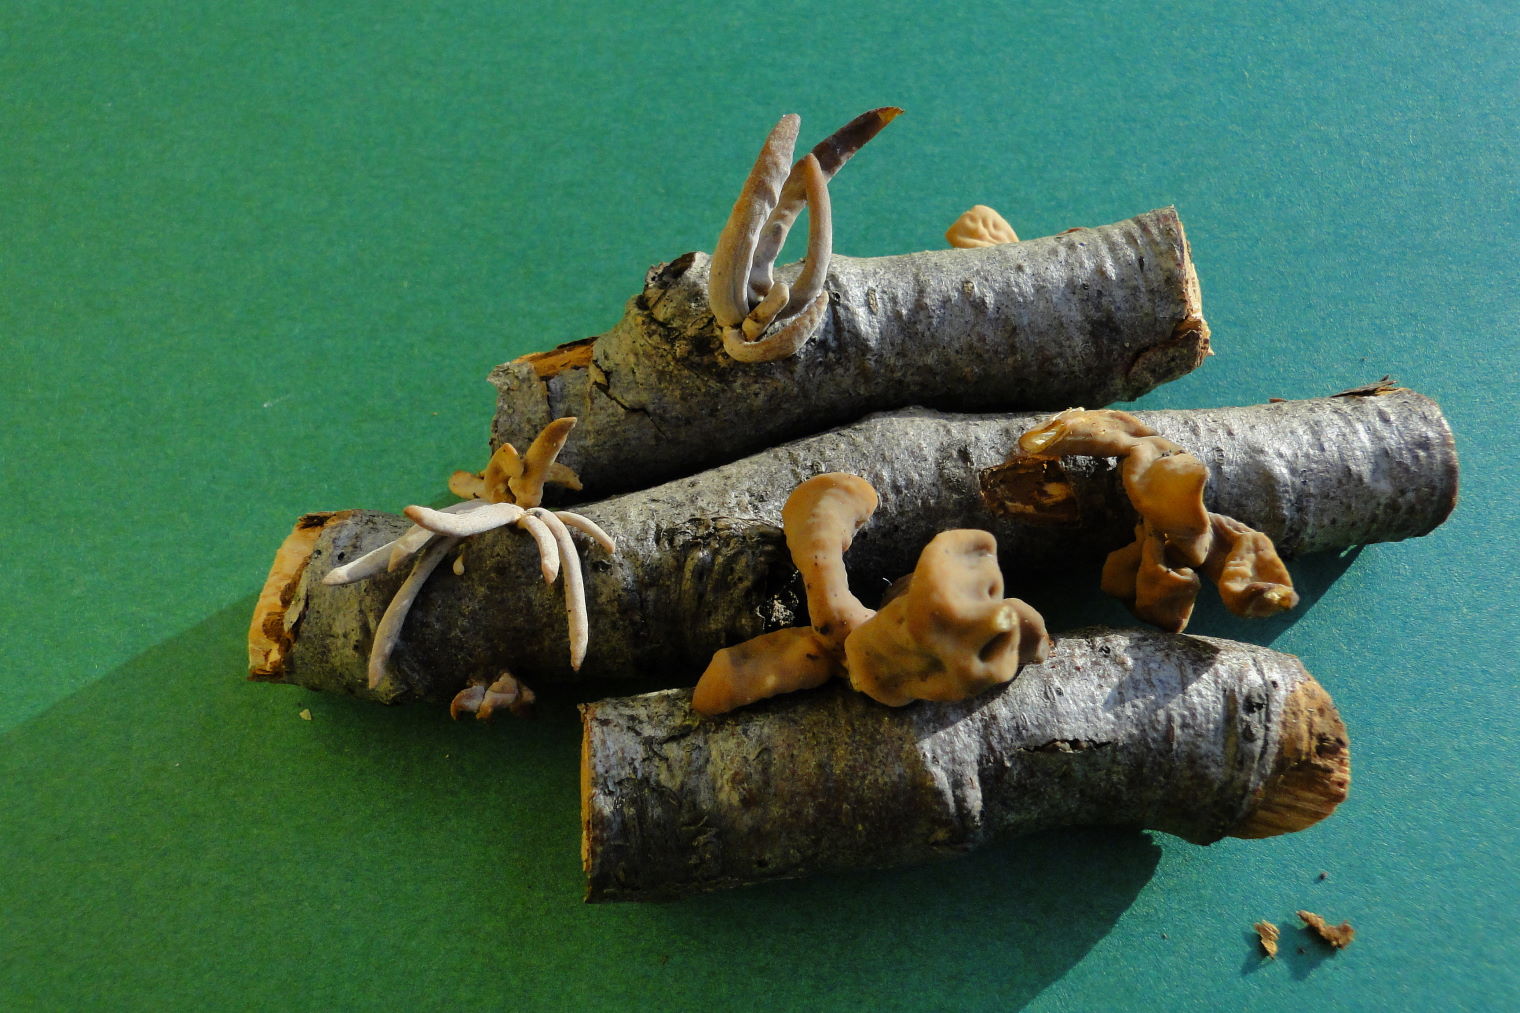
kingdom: Fungi
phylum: Basidiomycota
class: Agaricomycetes
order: Agaricales
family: Typhulaceae
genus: Typhula
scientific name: Typhula fistulosa
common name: pibet rørkølle
